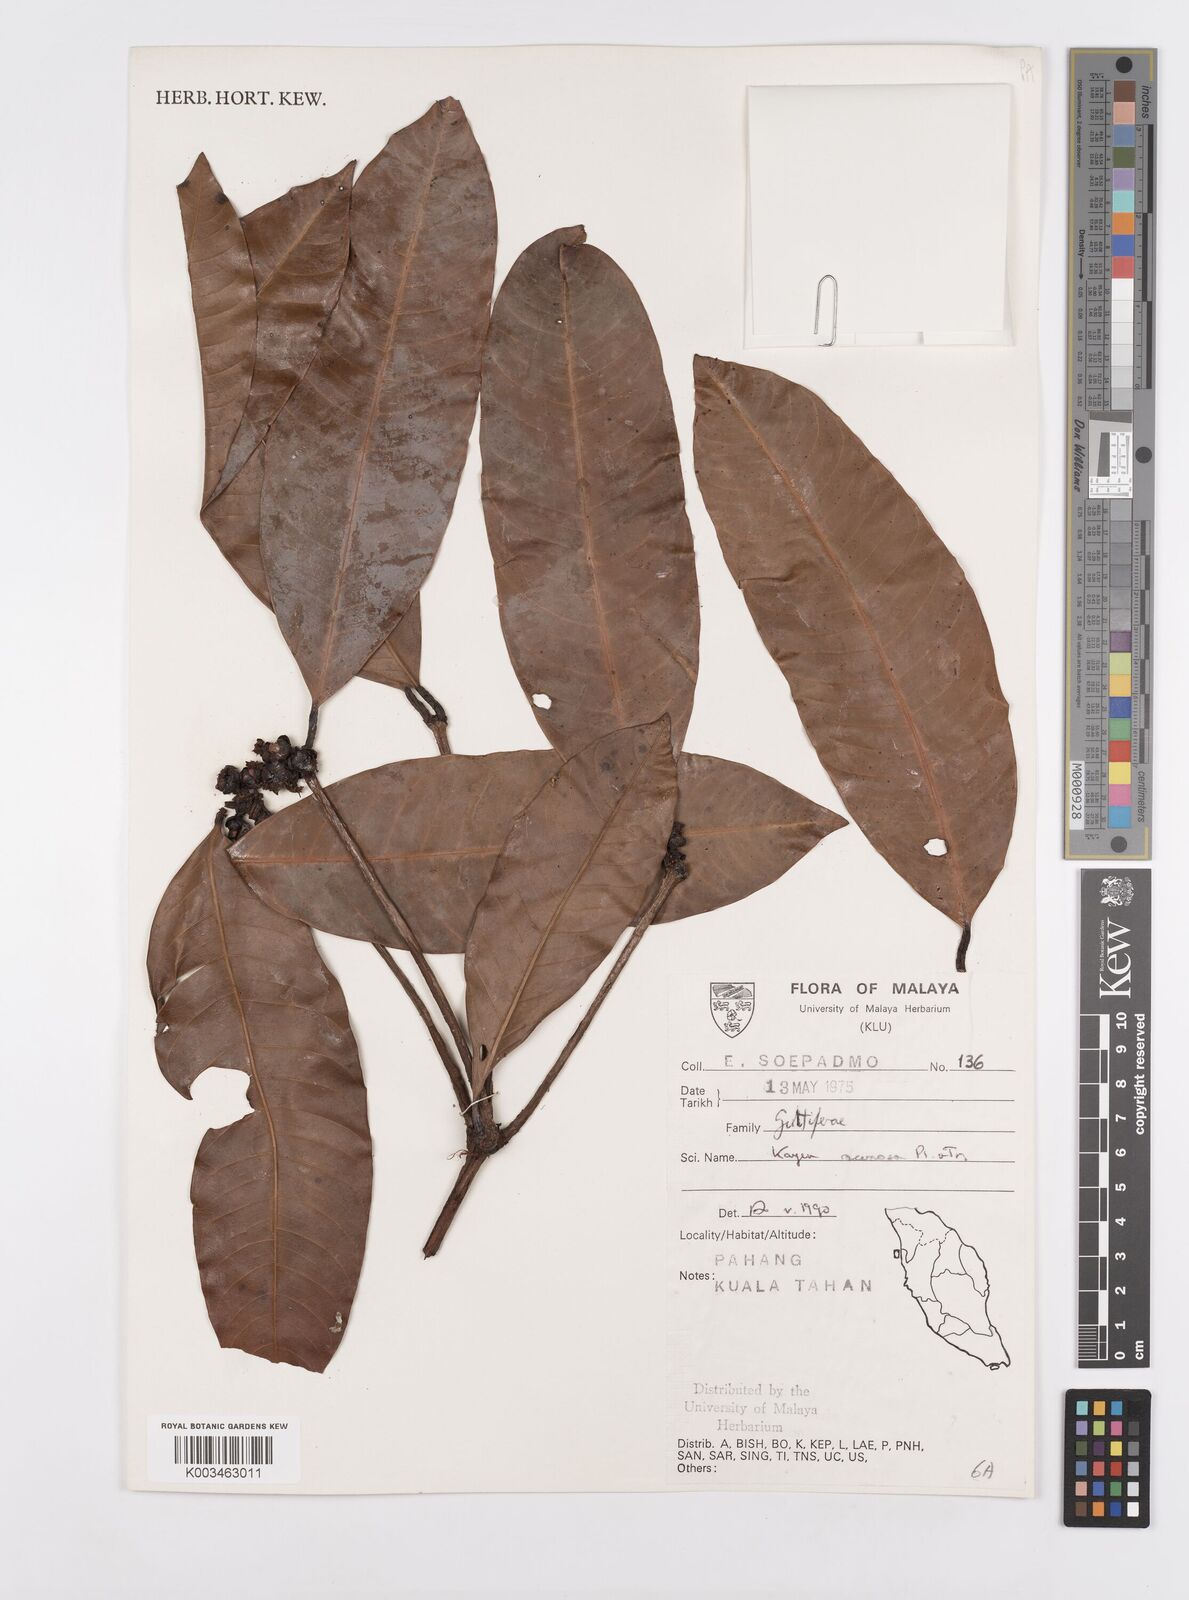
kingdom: Plantae
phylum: Tracheophyta
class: Magnoliopsida
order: Malpighiales
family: Calophyllaceae
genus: Kayea
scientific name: Kayea racemosa
